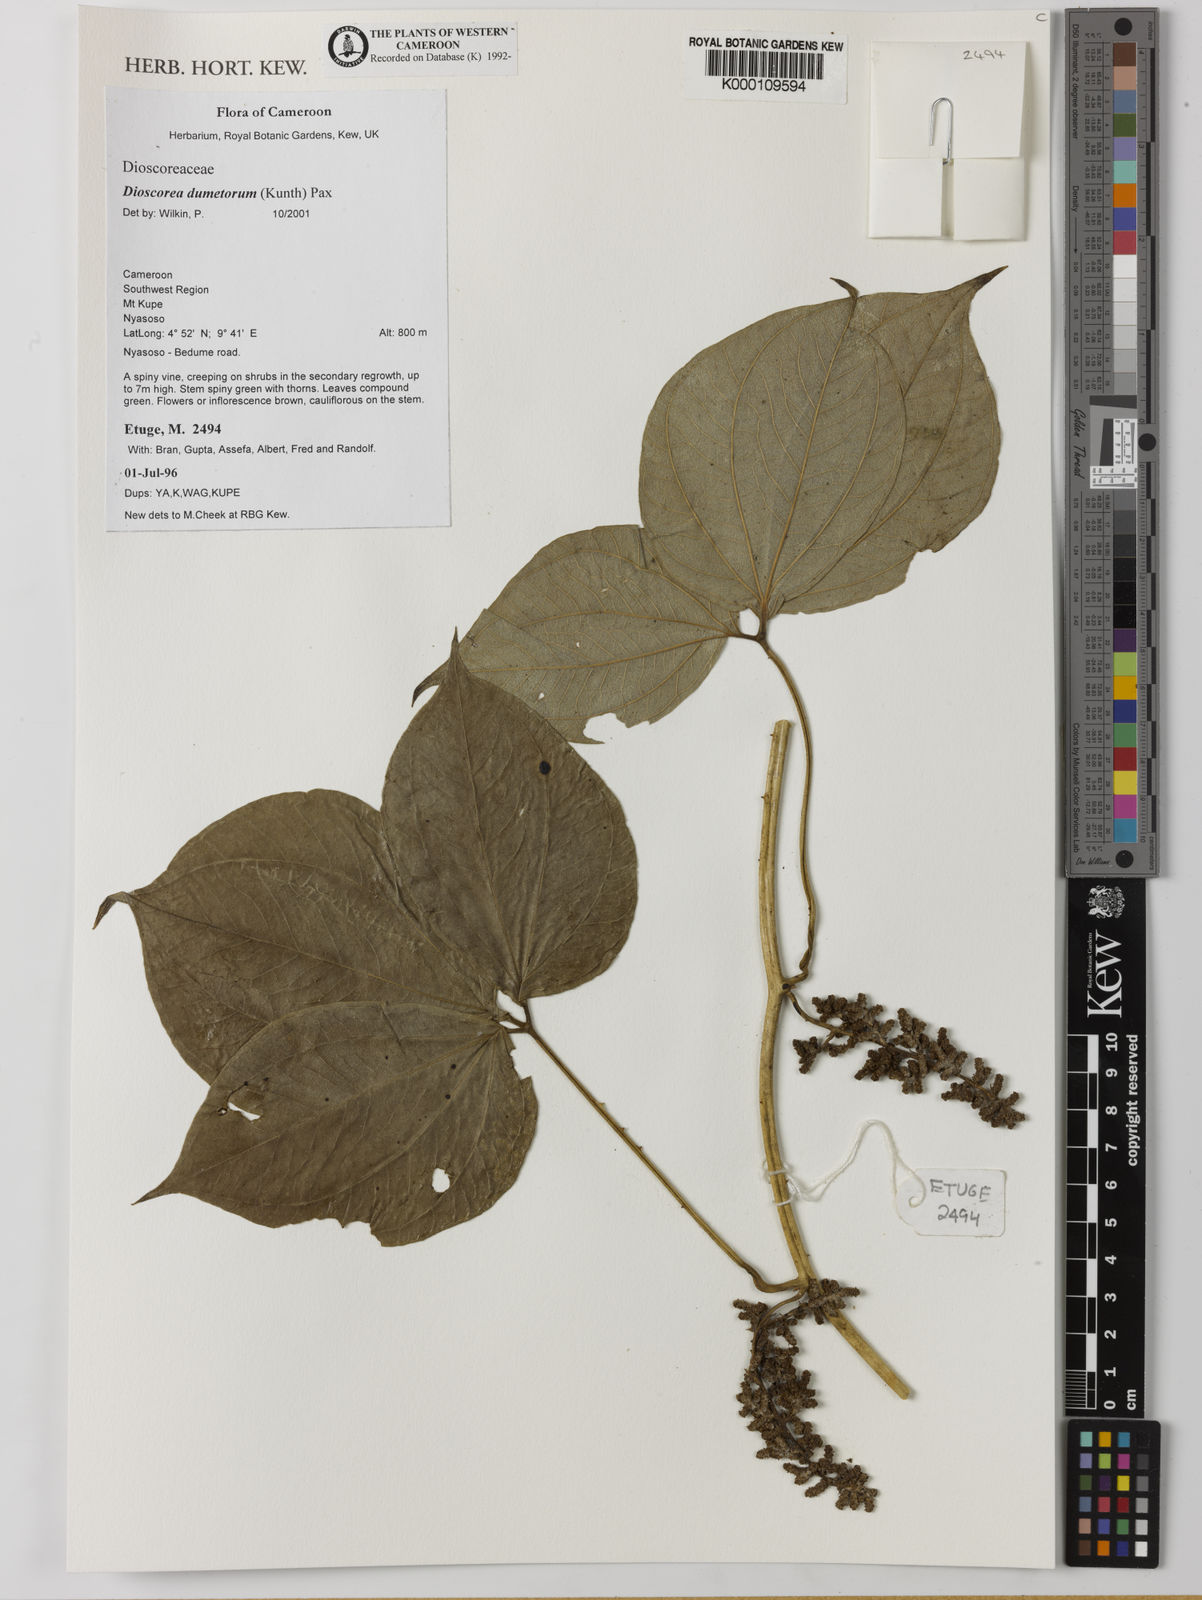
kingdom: Plantae
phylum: Tracheophyta
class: Liliopsida
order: Dioscoreales
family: Dioscoreaceae
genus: Dioscorea
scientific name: Dioscorea dumetorum
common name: African bitter yam
